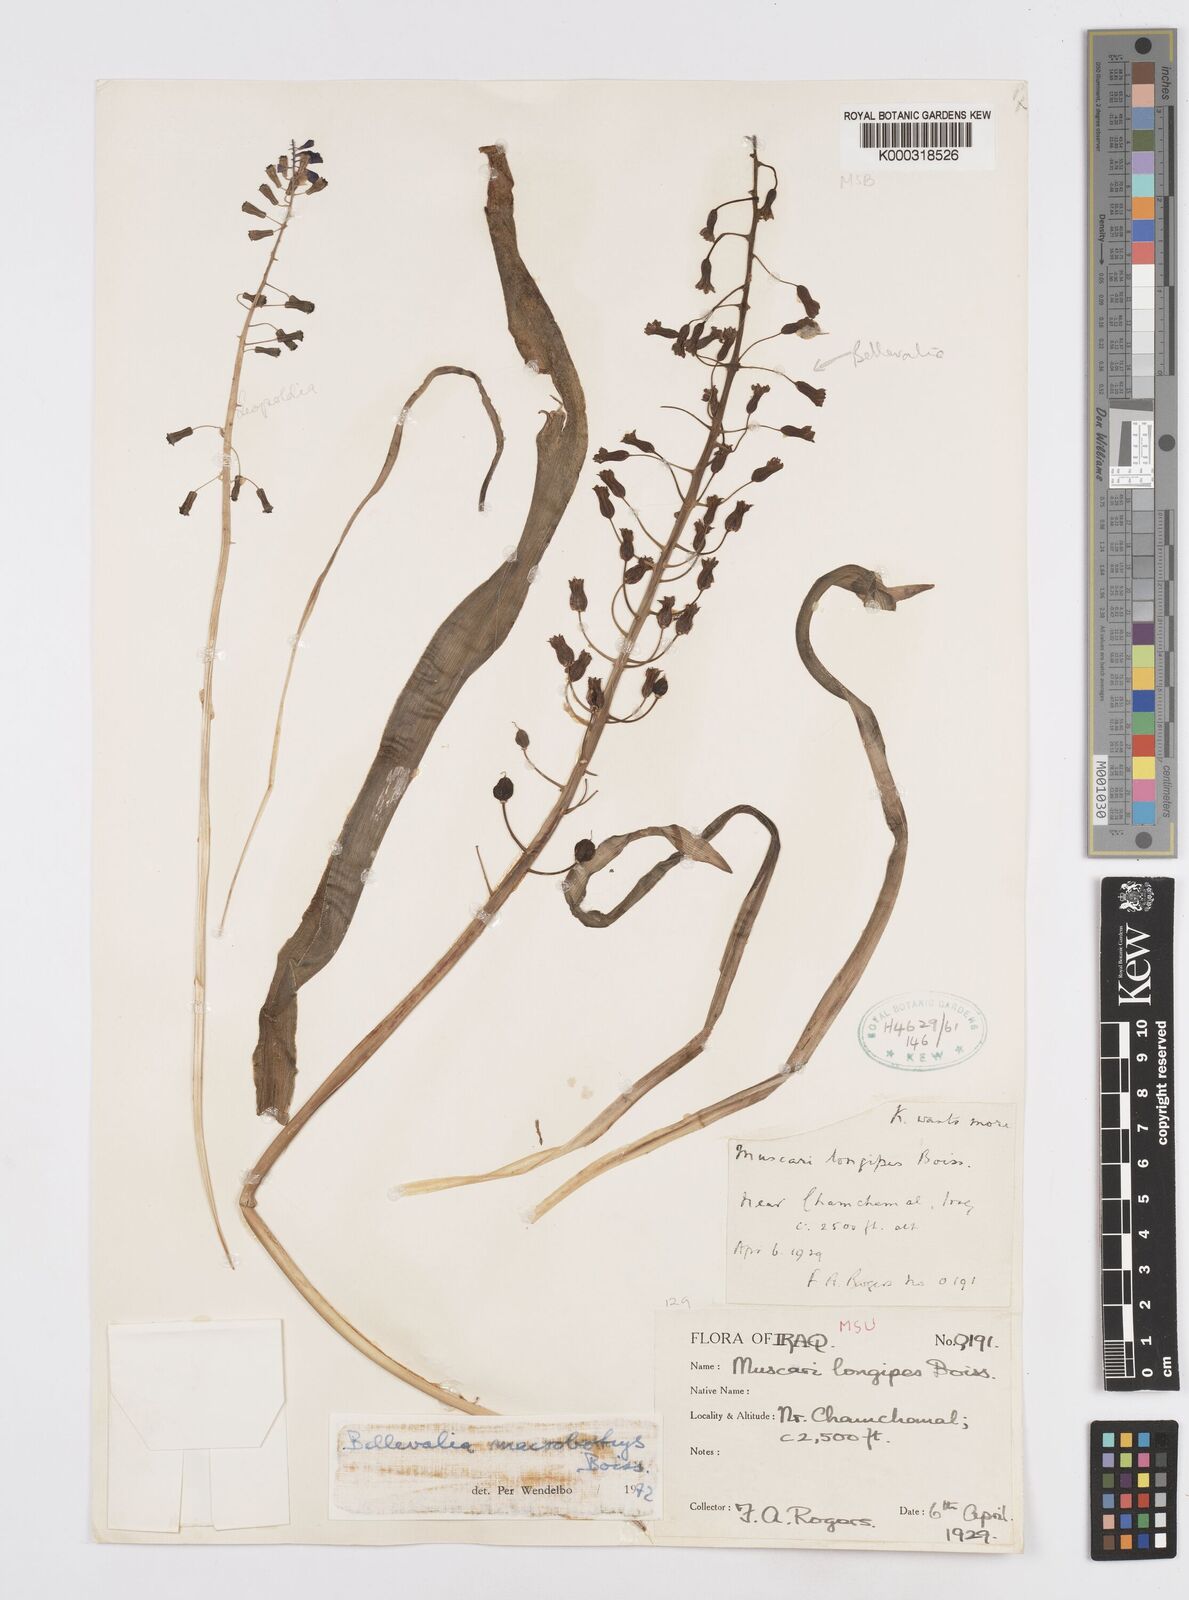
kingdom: Plantae
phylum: Tracheophyta
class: Liliopsida
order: Asparagales
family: Asparagaceae
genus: Bellevalia
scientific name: Bellevalia macrobotrys
